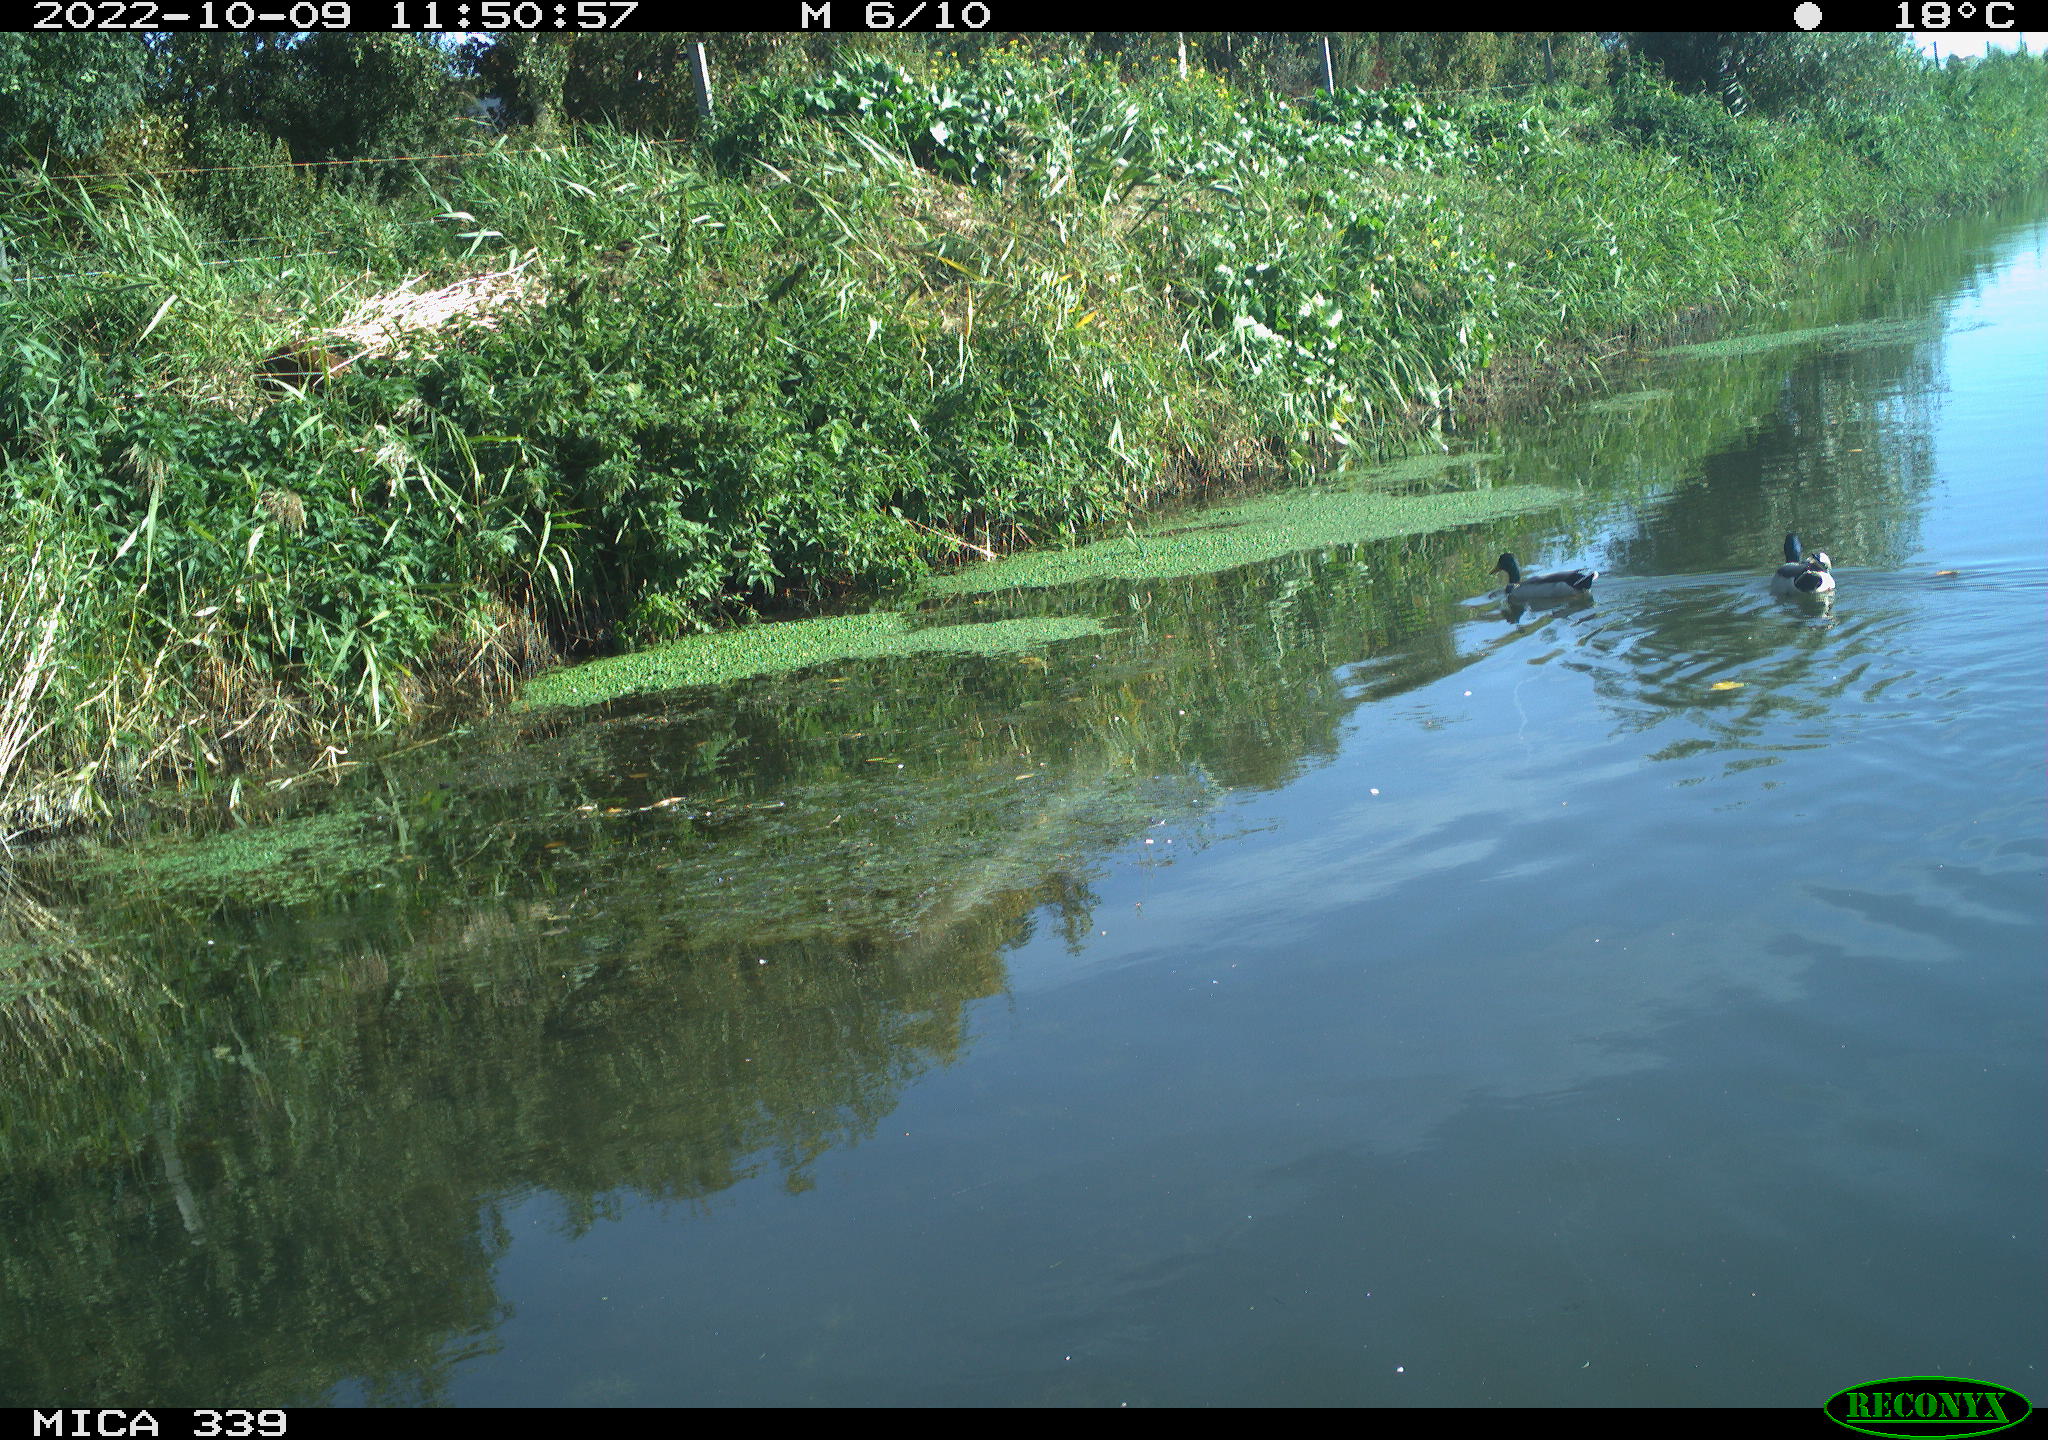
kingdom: Animalia
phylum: Chordata
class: Aves
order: Anseriformes
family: Anatidae
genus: Anas
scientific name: Anas platyrhynchos
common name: Mallard
